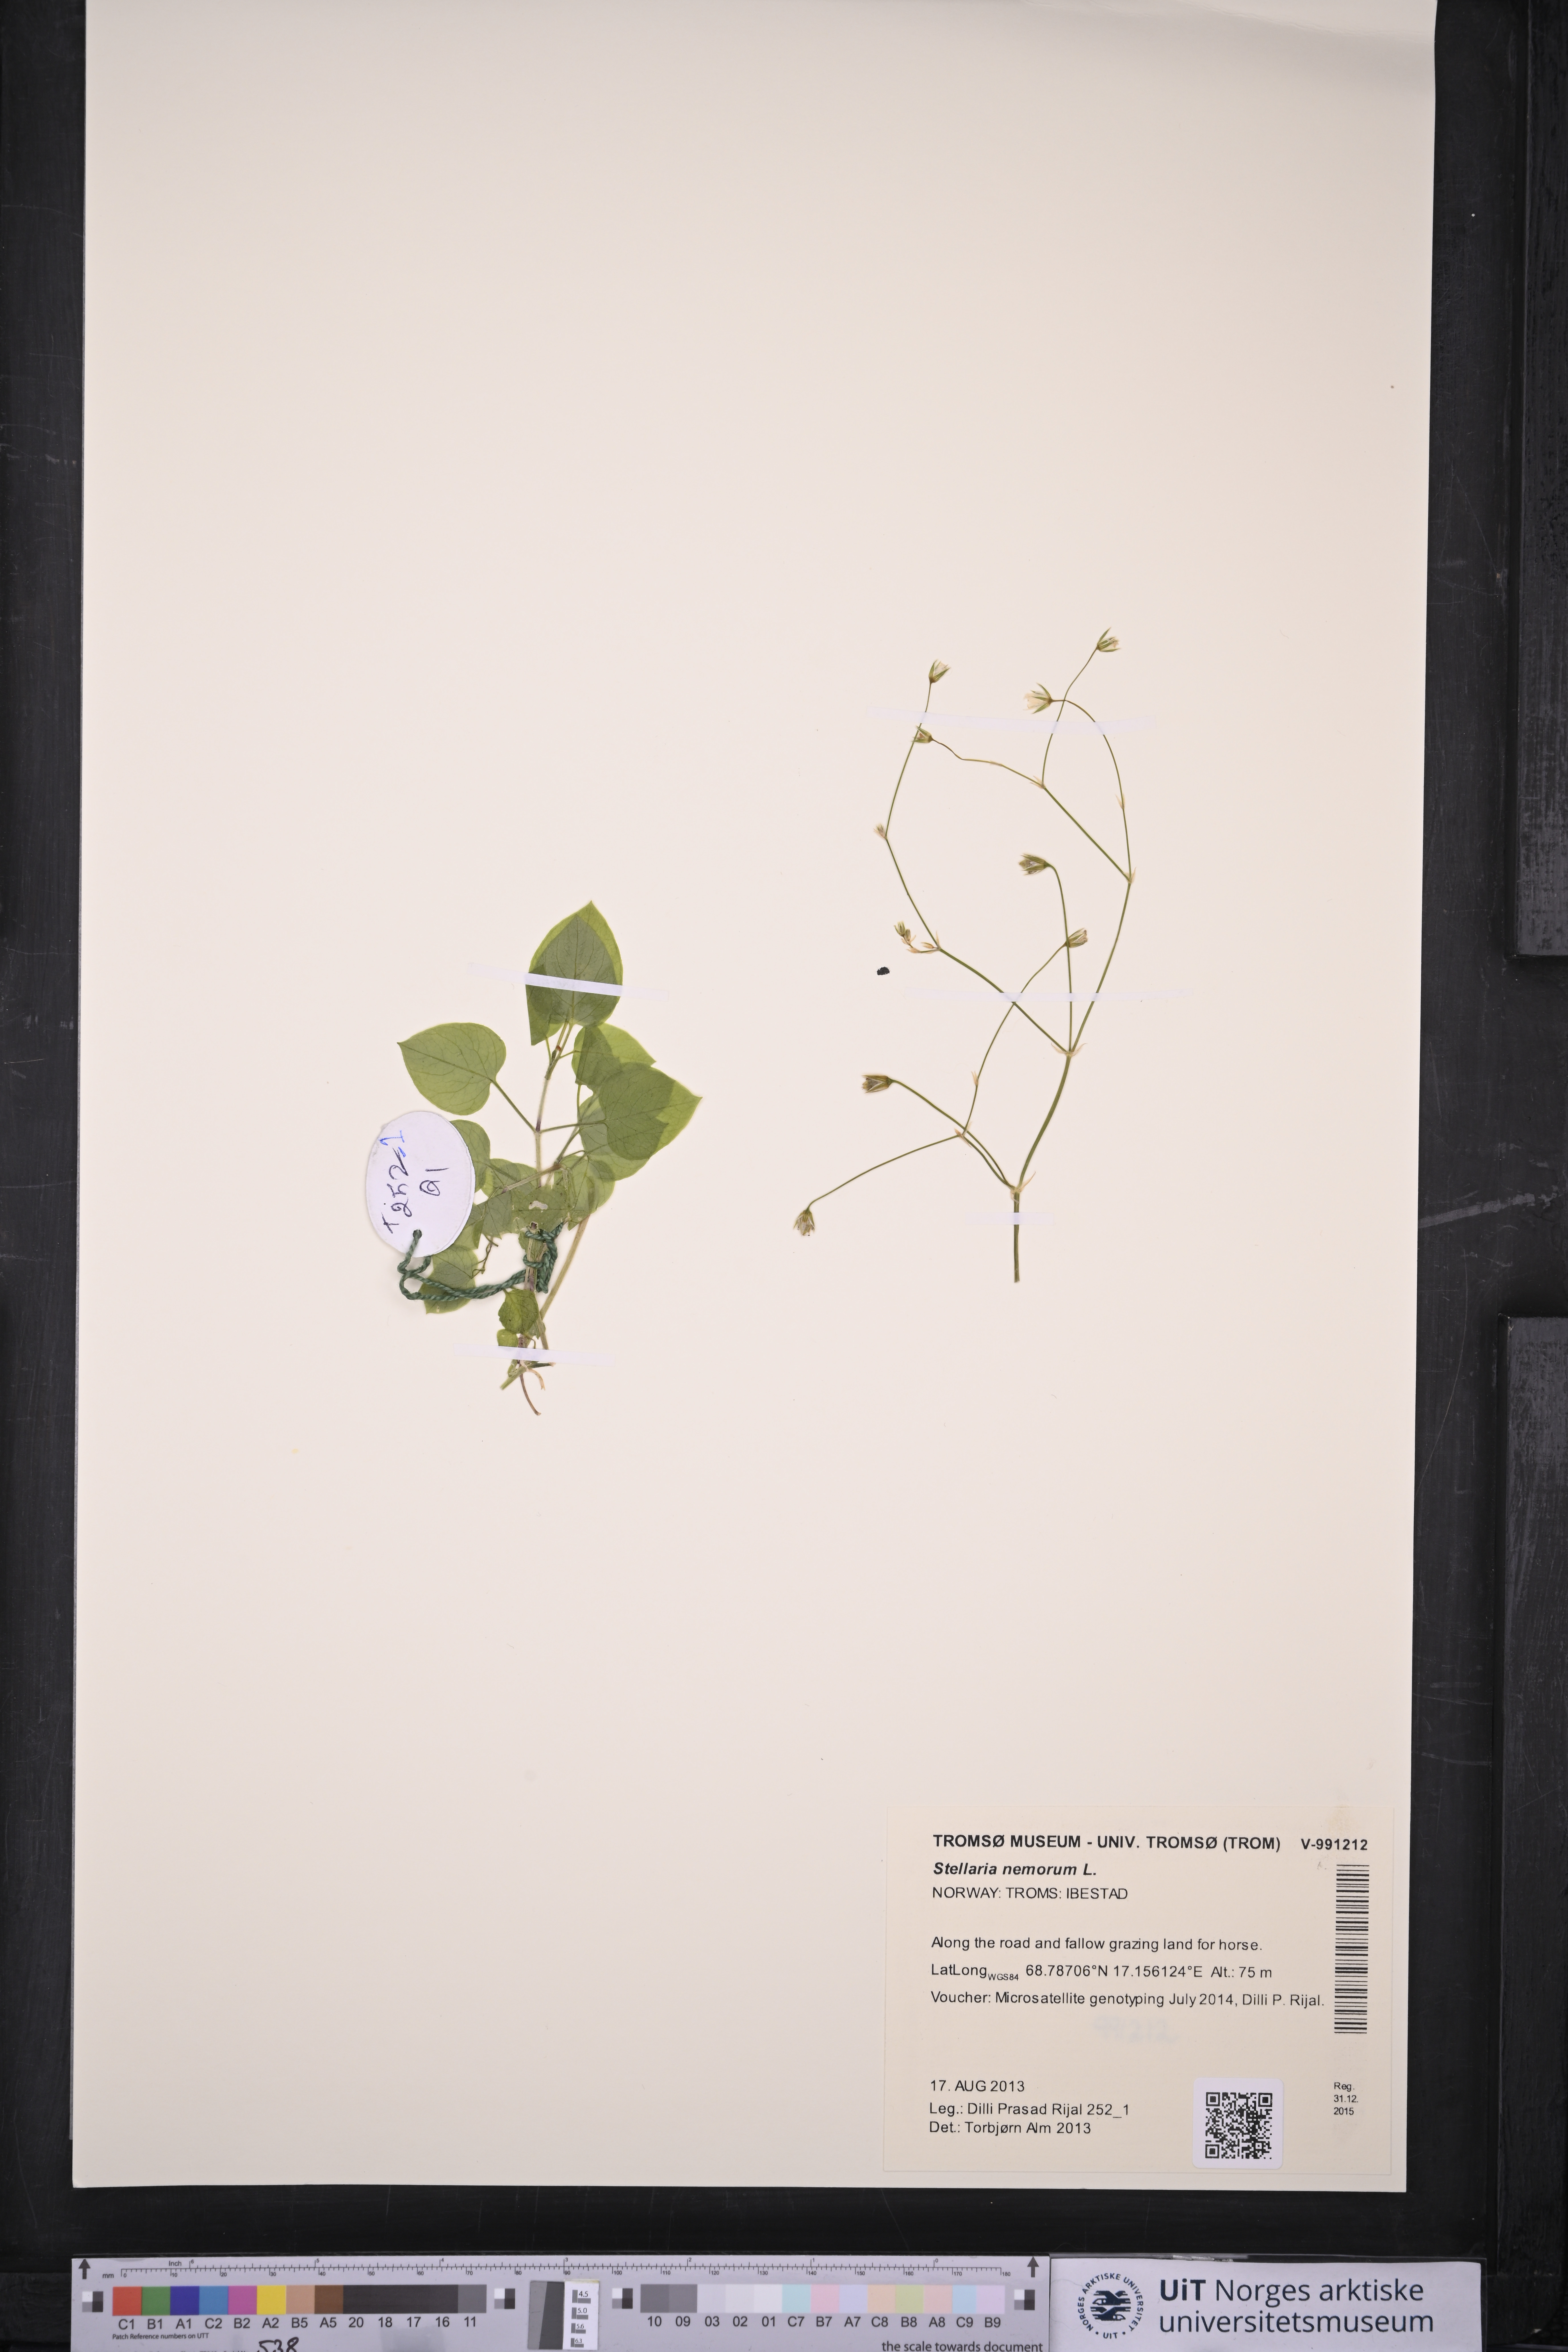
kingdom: Plantae
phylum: Tracheophyta
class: Magnoliopsida
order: Caryophyllales
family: Caryophyllaceae
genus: Stellaria
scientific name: Stellaria nemorum
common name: Wood stitchwort
